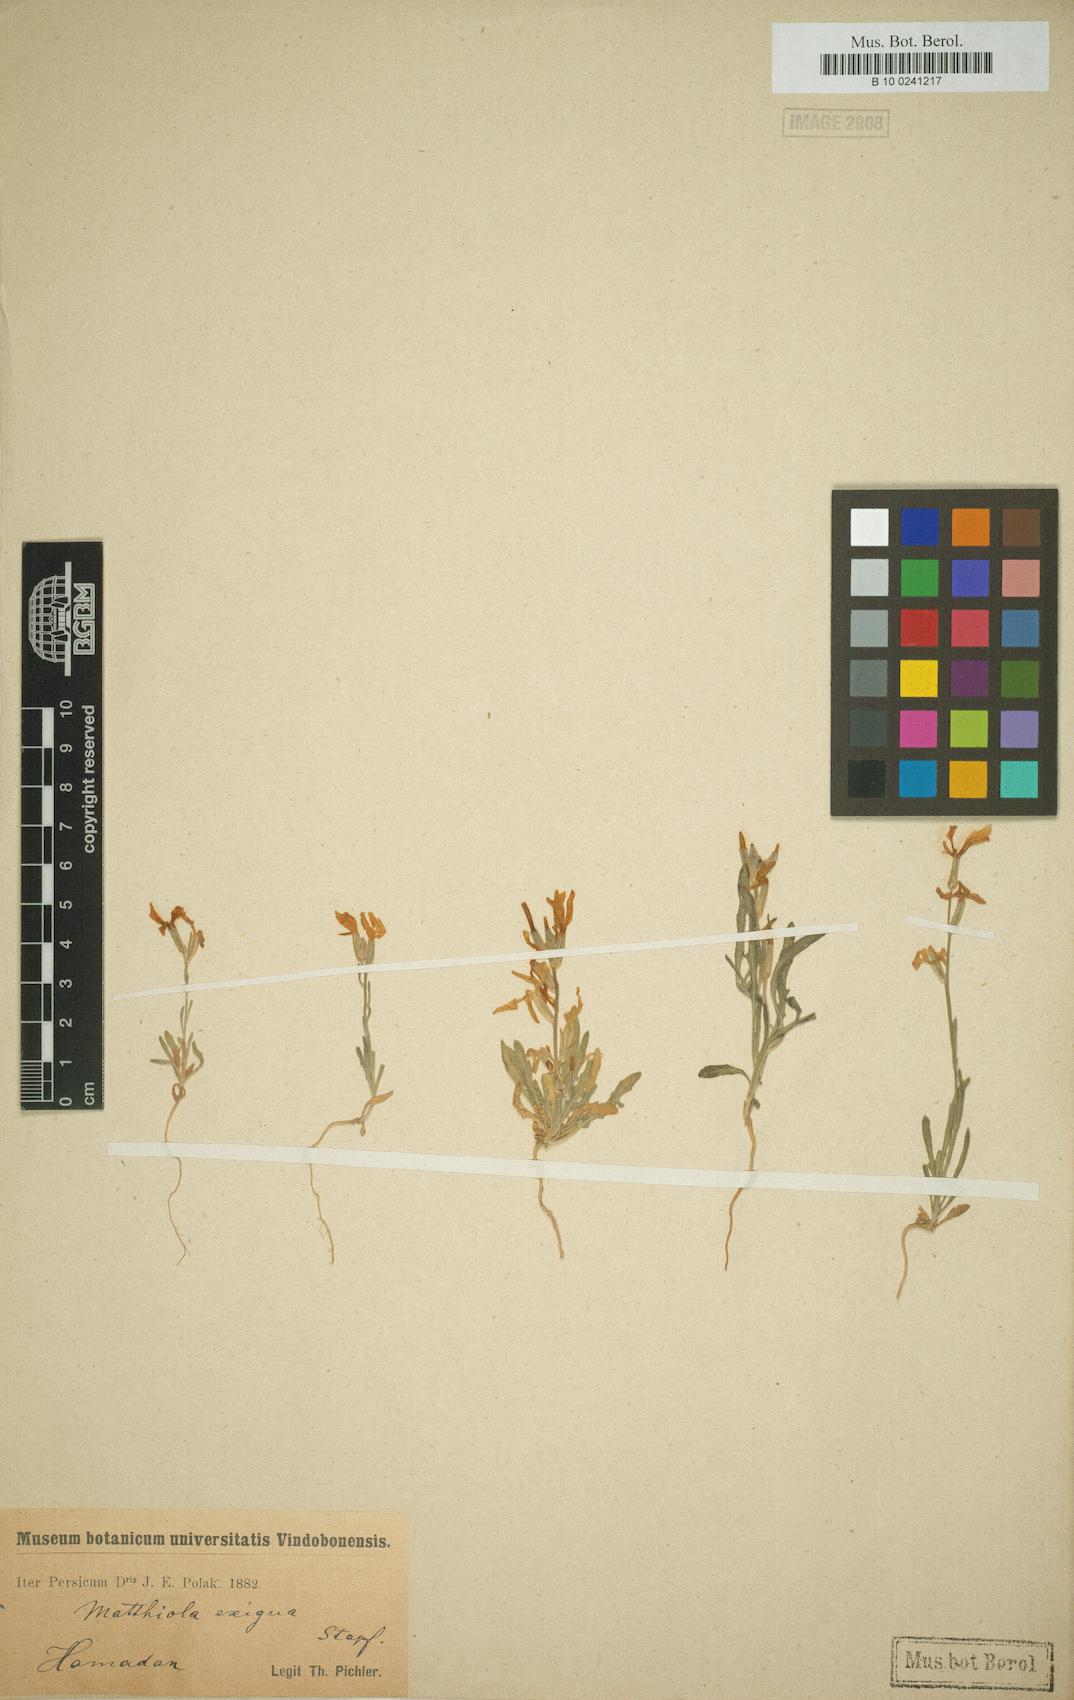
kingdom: Plantae
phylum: Tracheophyta
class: Magnoliopsida
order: Brassicales
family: Brassicaceae
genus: Matthiola
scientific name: Matthiola chenopodiifolia
